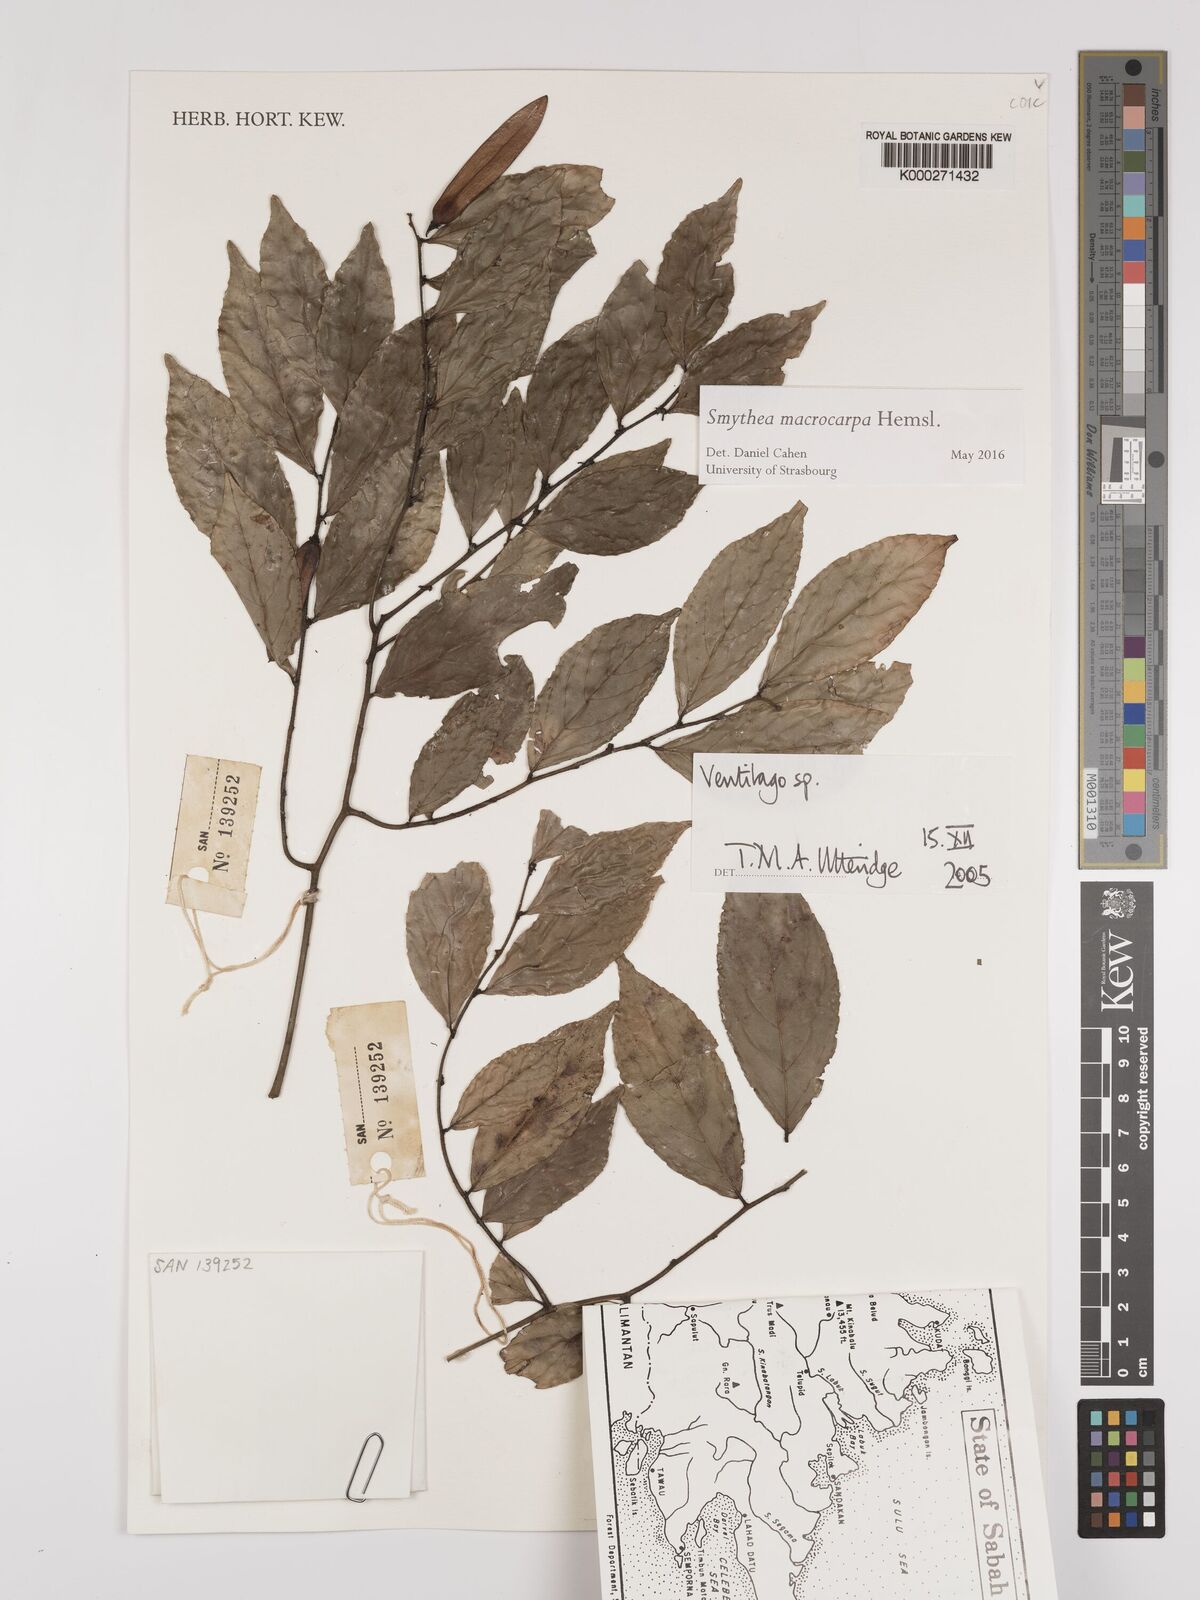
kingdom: Plantae
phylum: Tracheophyta
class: Magnoliopsida
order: Rosales
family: Rhamnaceae
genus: Ventilago
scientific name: Ventilago
